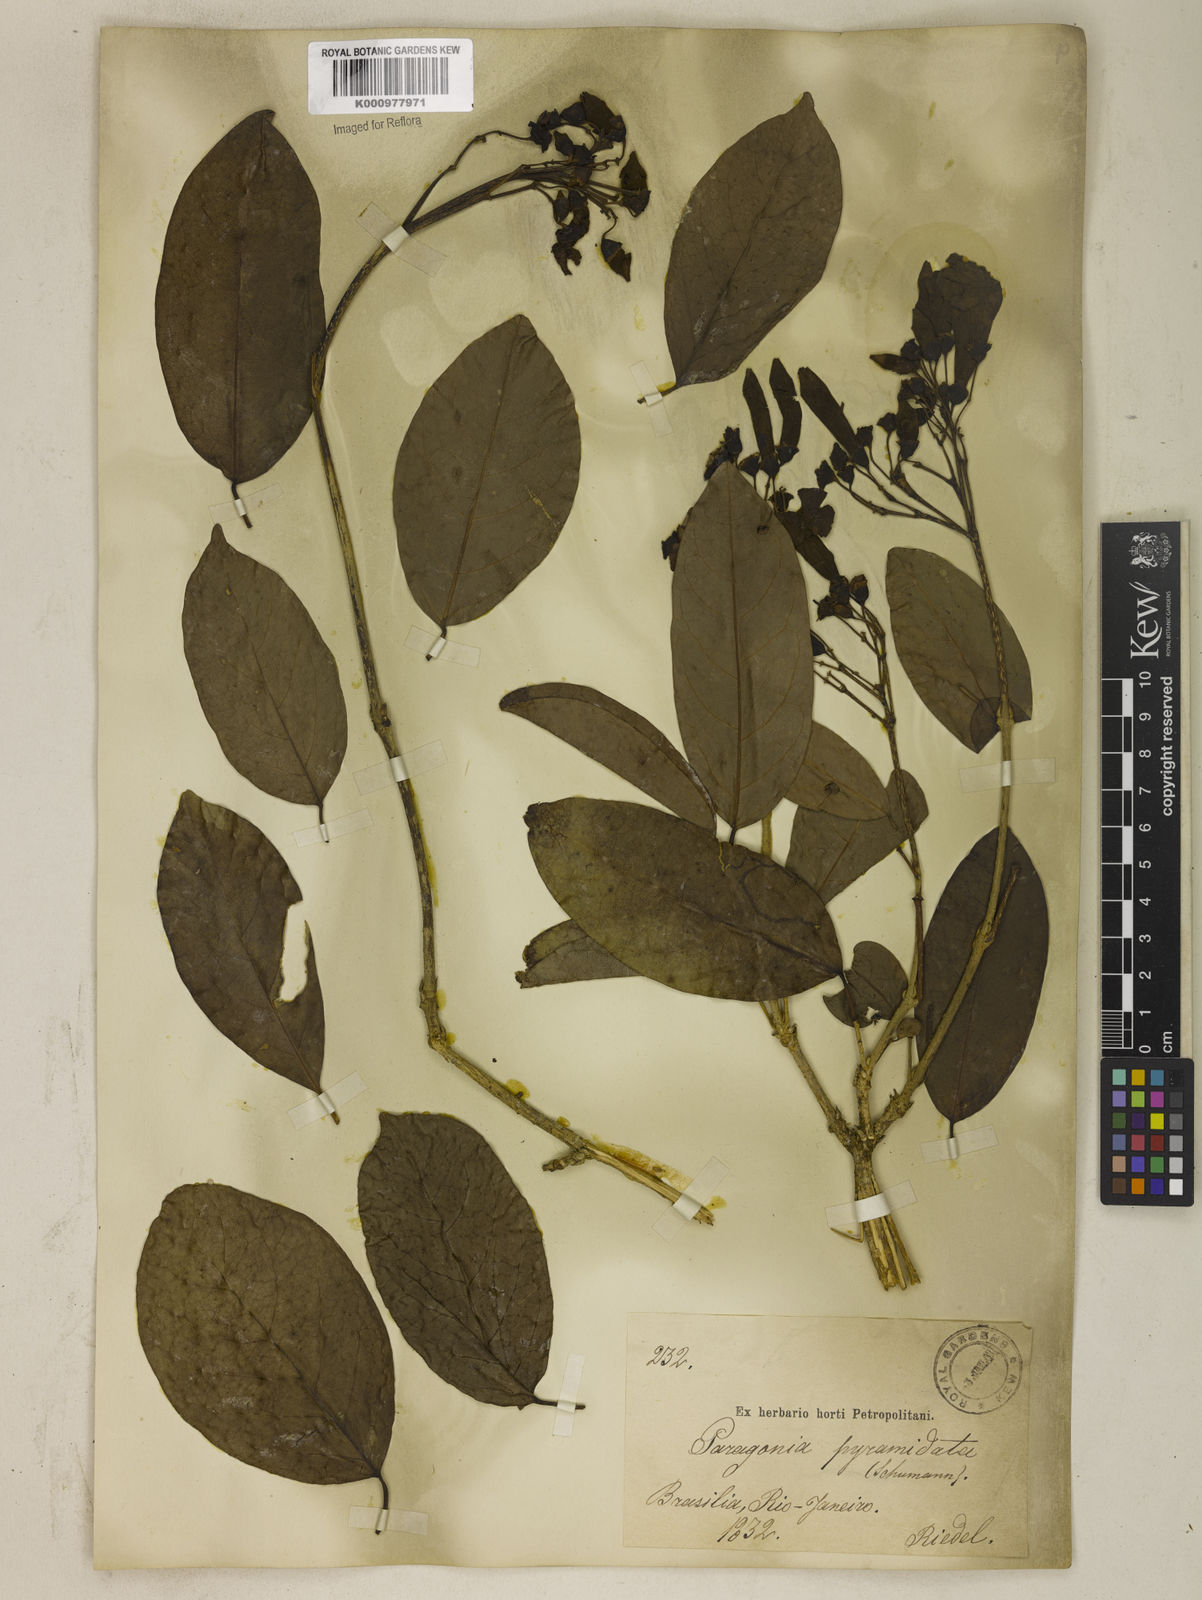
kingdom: Plantae
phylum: Tracheophyta
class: Magnoliopsida
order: Lamiales
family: Bignoniaceae
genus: Tanaecium
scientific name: Tanaecium pyramidatum
